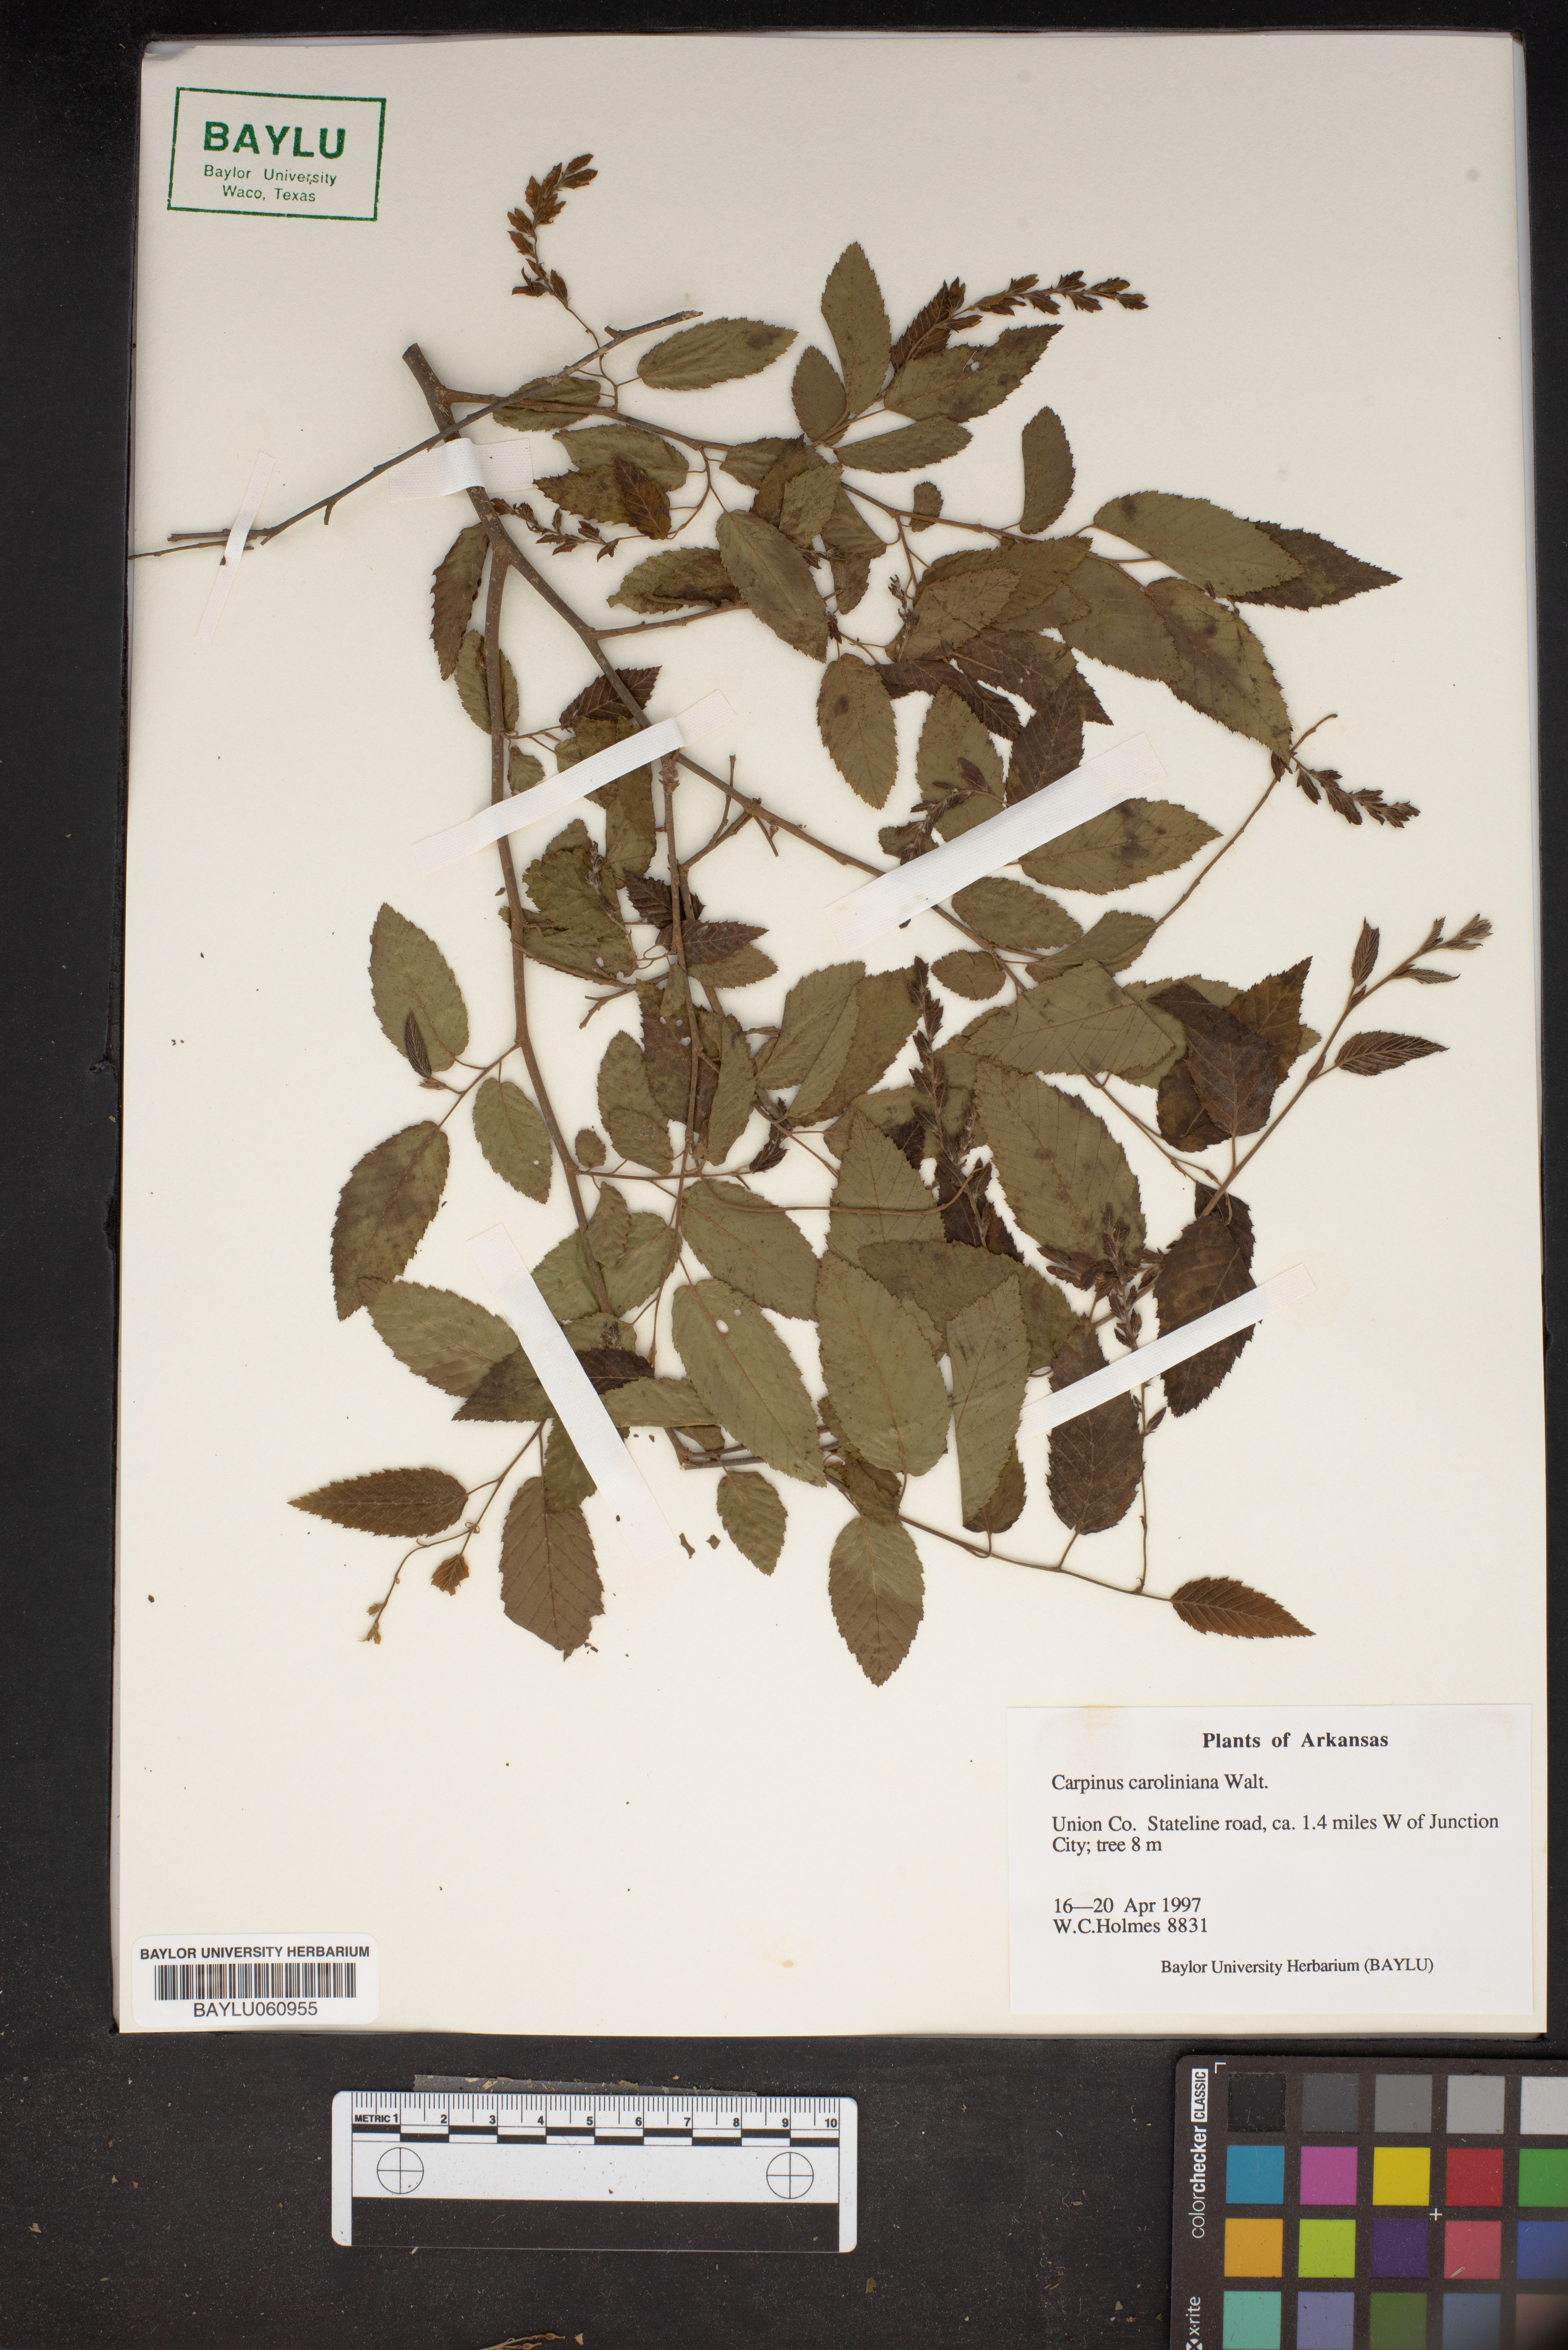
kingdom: Plantae
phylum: Tracheophyta
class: Magnoliopsida
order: Fagales
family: Betulaceae
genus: Carpinus
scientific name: Carpinus caroliniana
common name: American hornbeam
